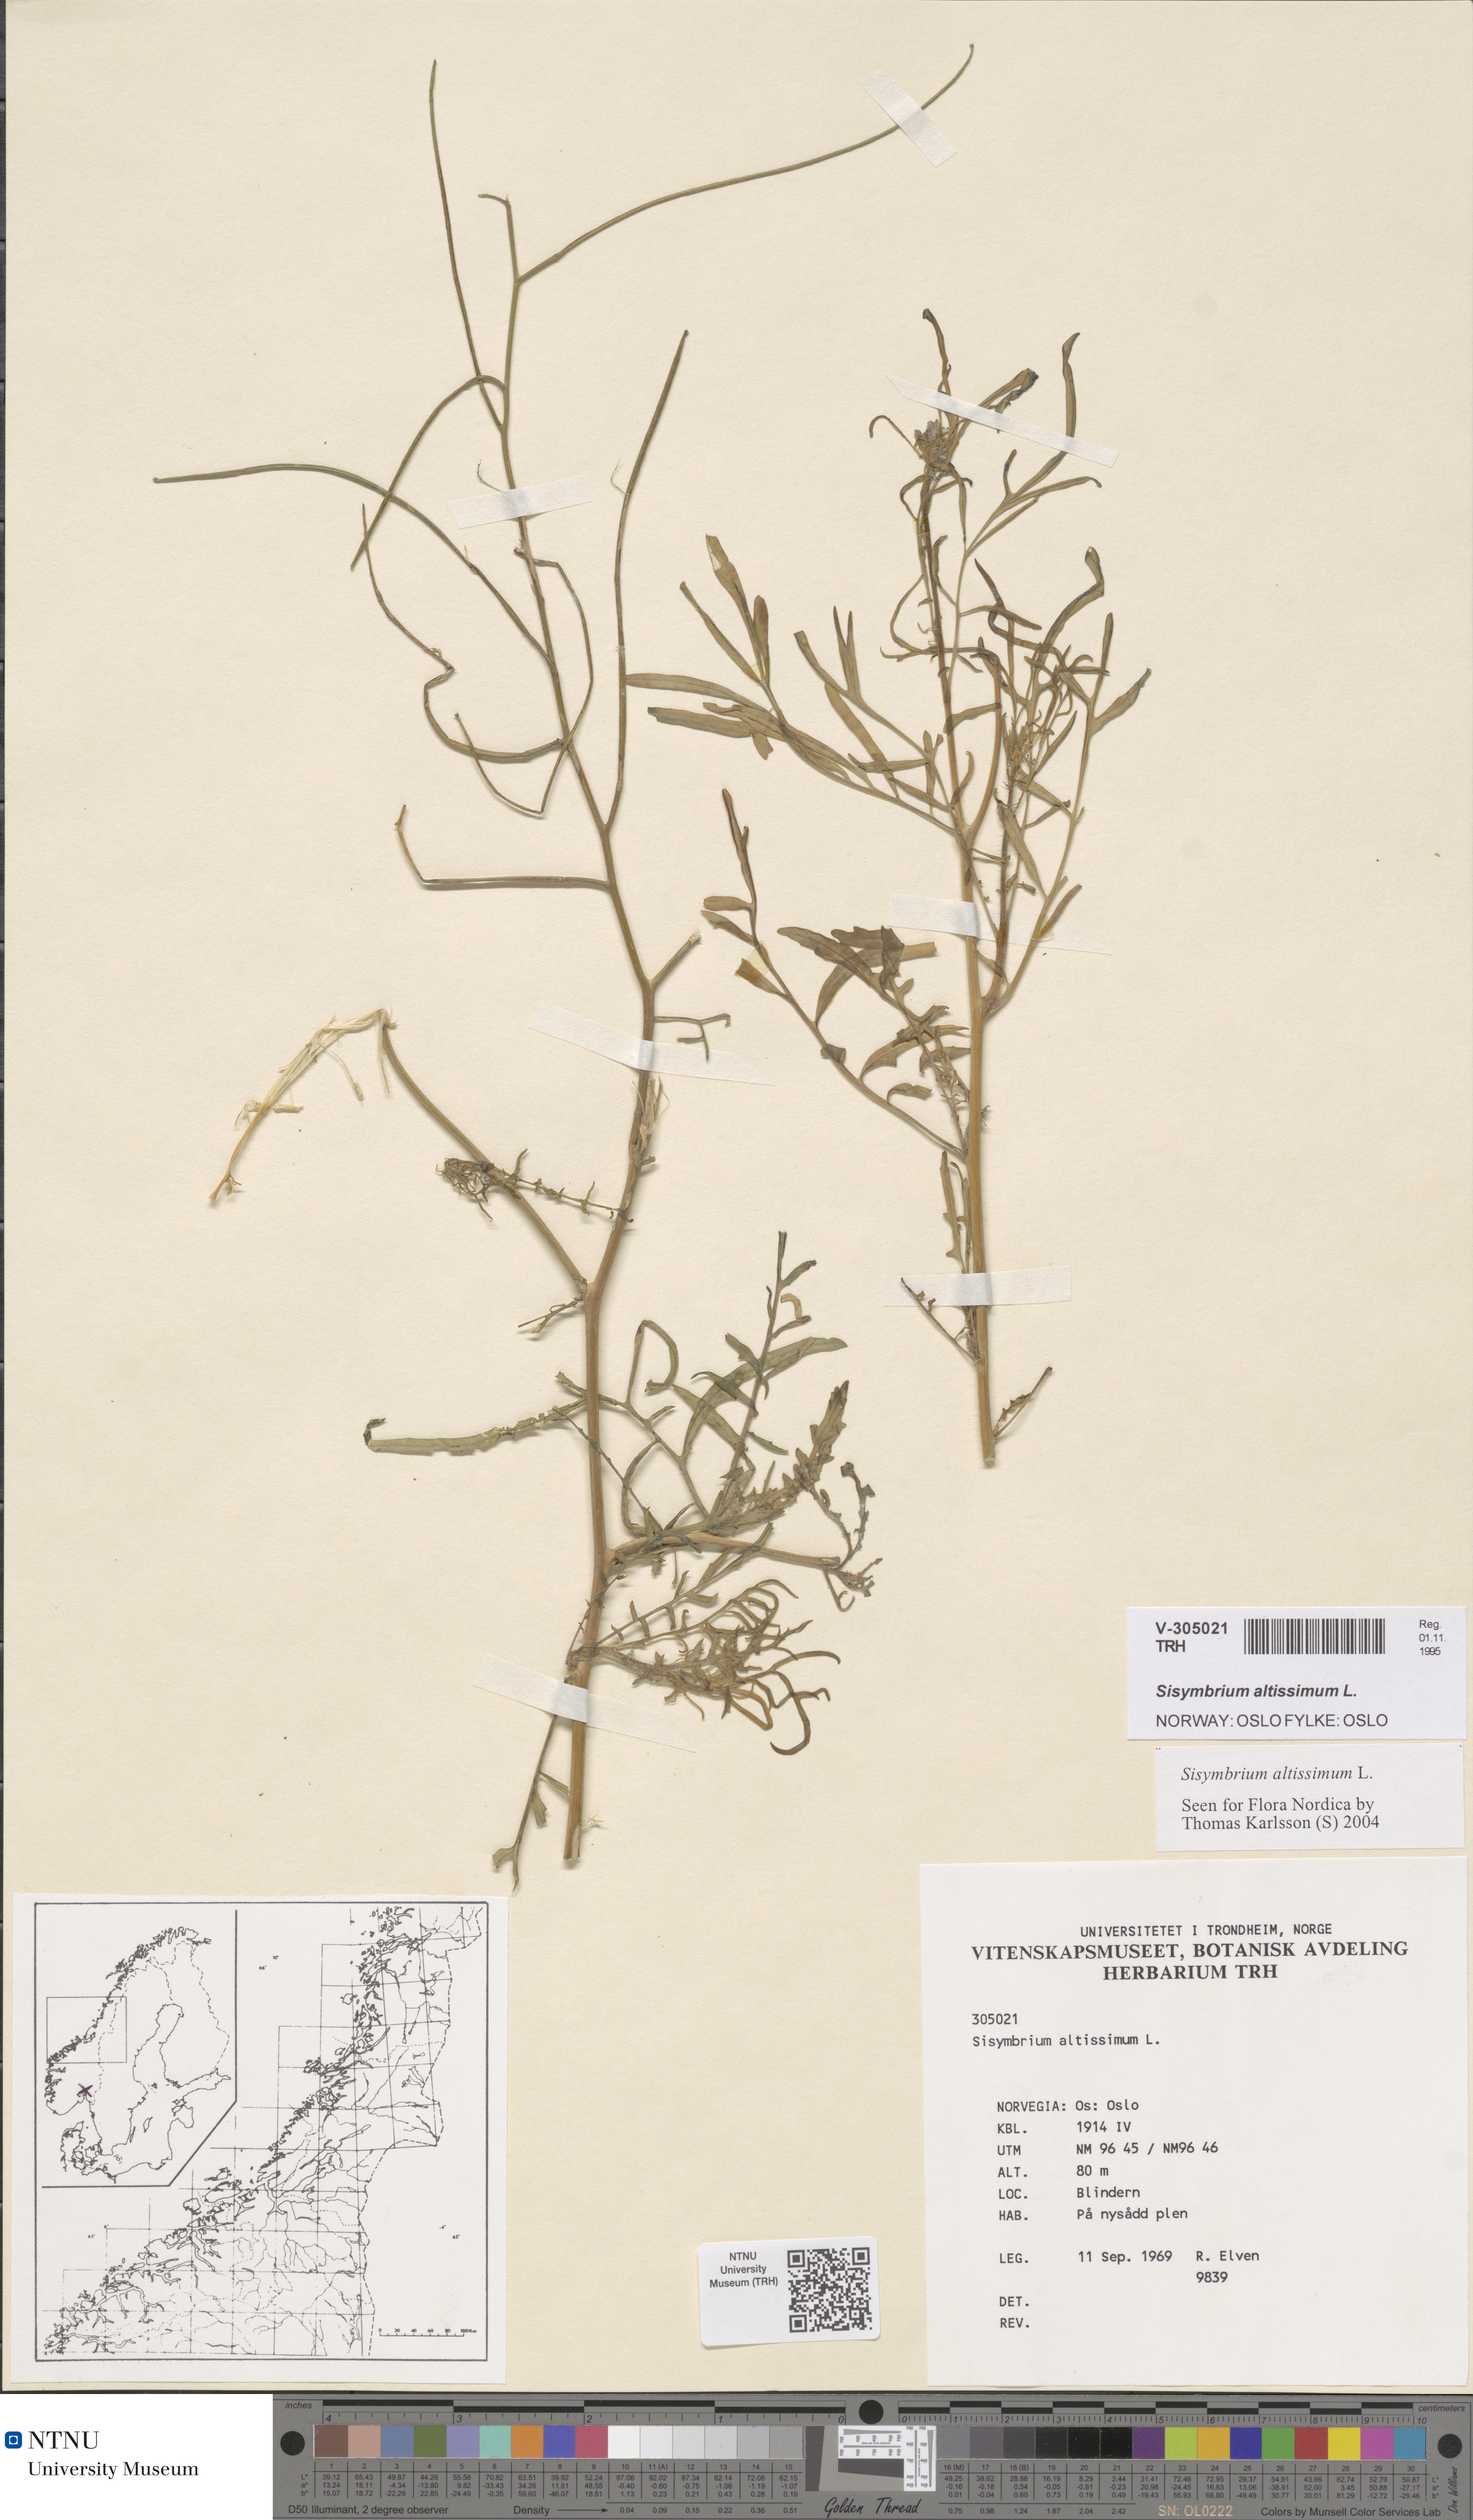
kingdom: Plantae
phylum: Tracheophyta
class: Magnoliopsida
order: Brassicales
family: Brassicaceae
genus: Sisymbrium
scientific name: Sisymbrium altissimum
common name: Tall rocket
